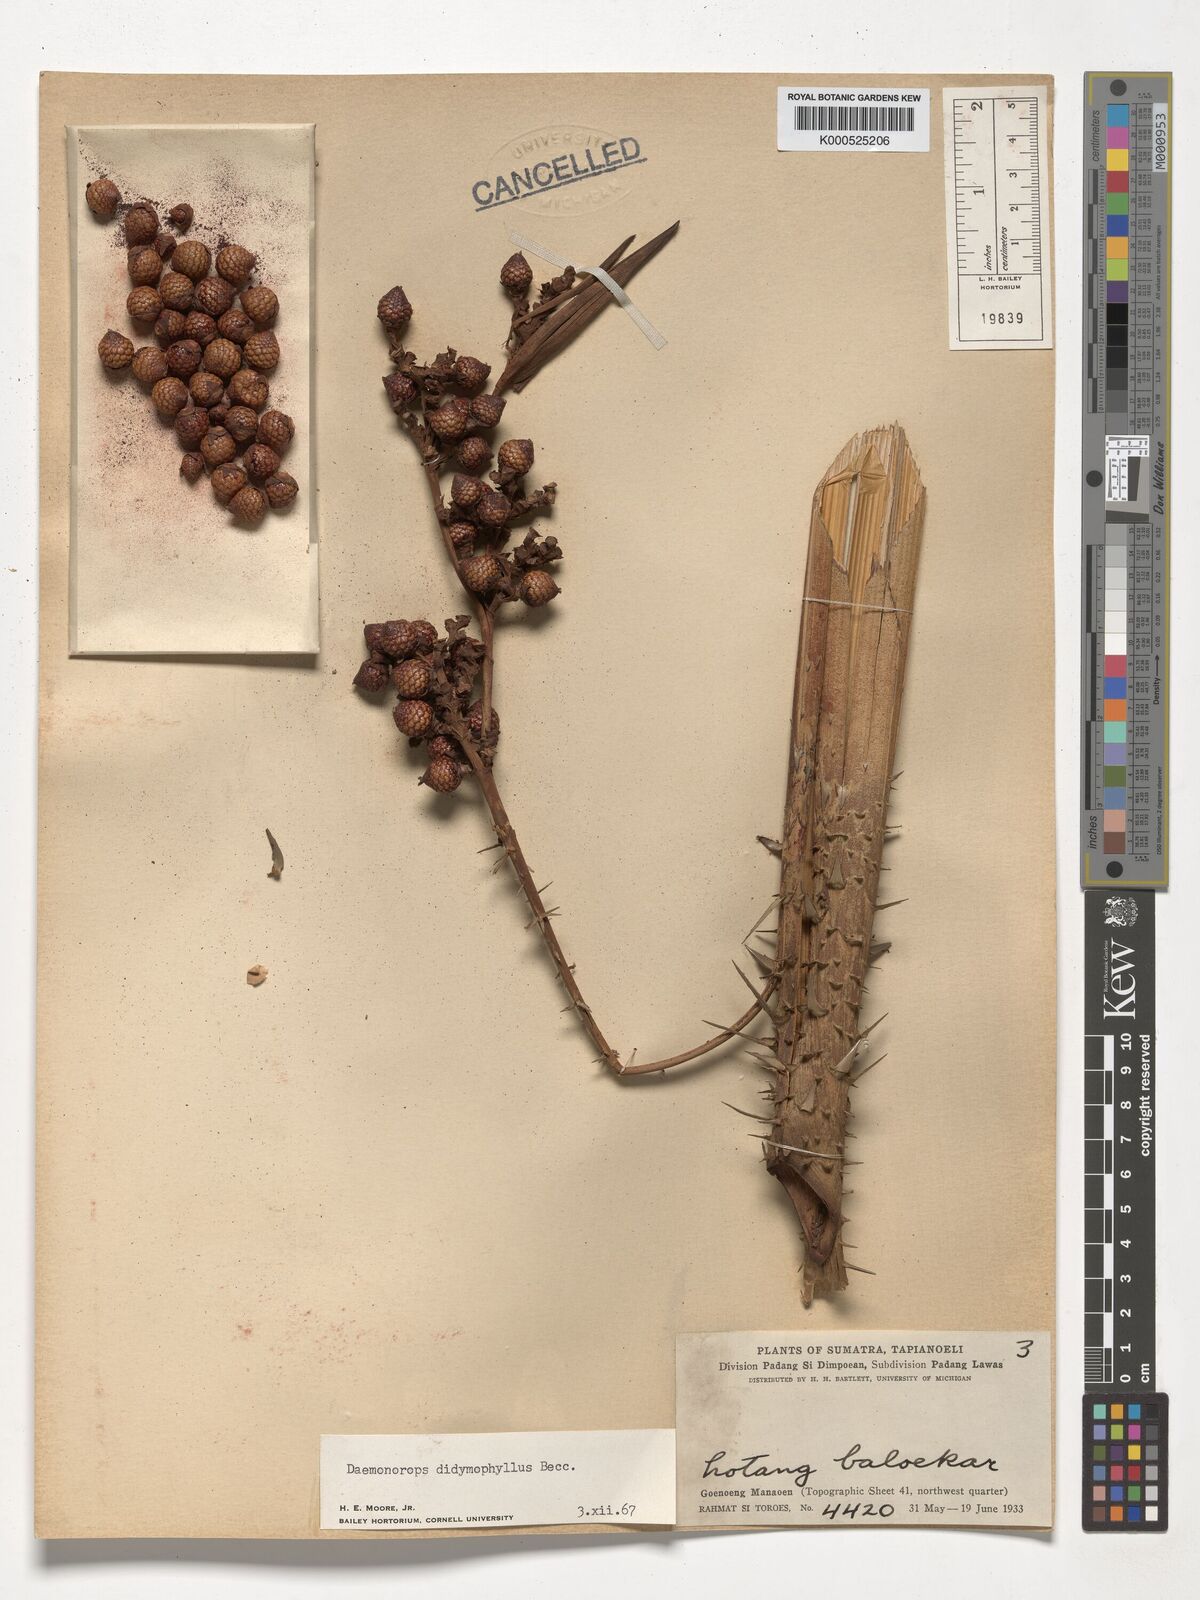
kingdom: Plantae
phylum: Tracheophyta
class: Liliopsida
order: Arecales
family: Arecaceae
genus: Calamus
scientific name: Calamus gracilipes
